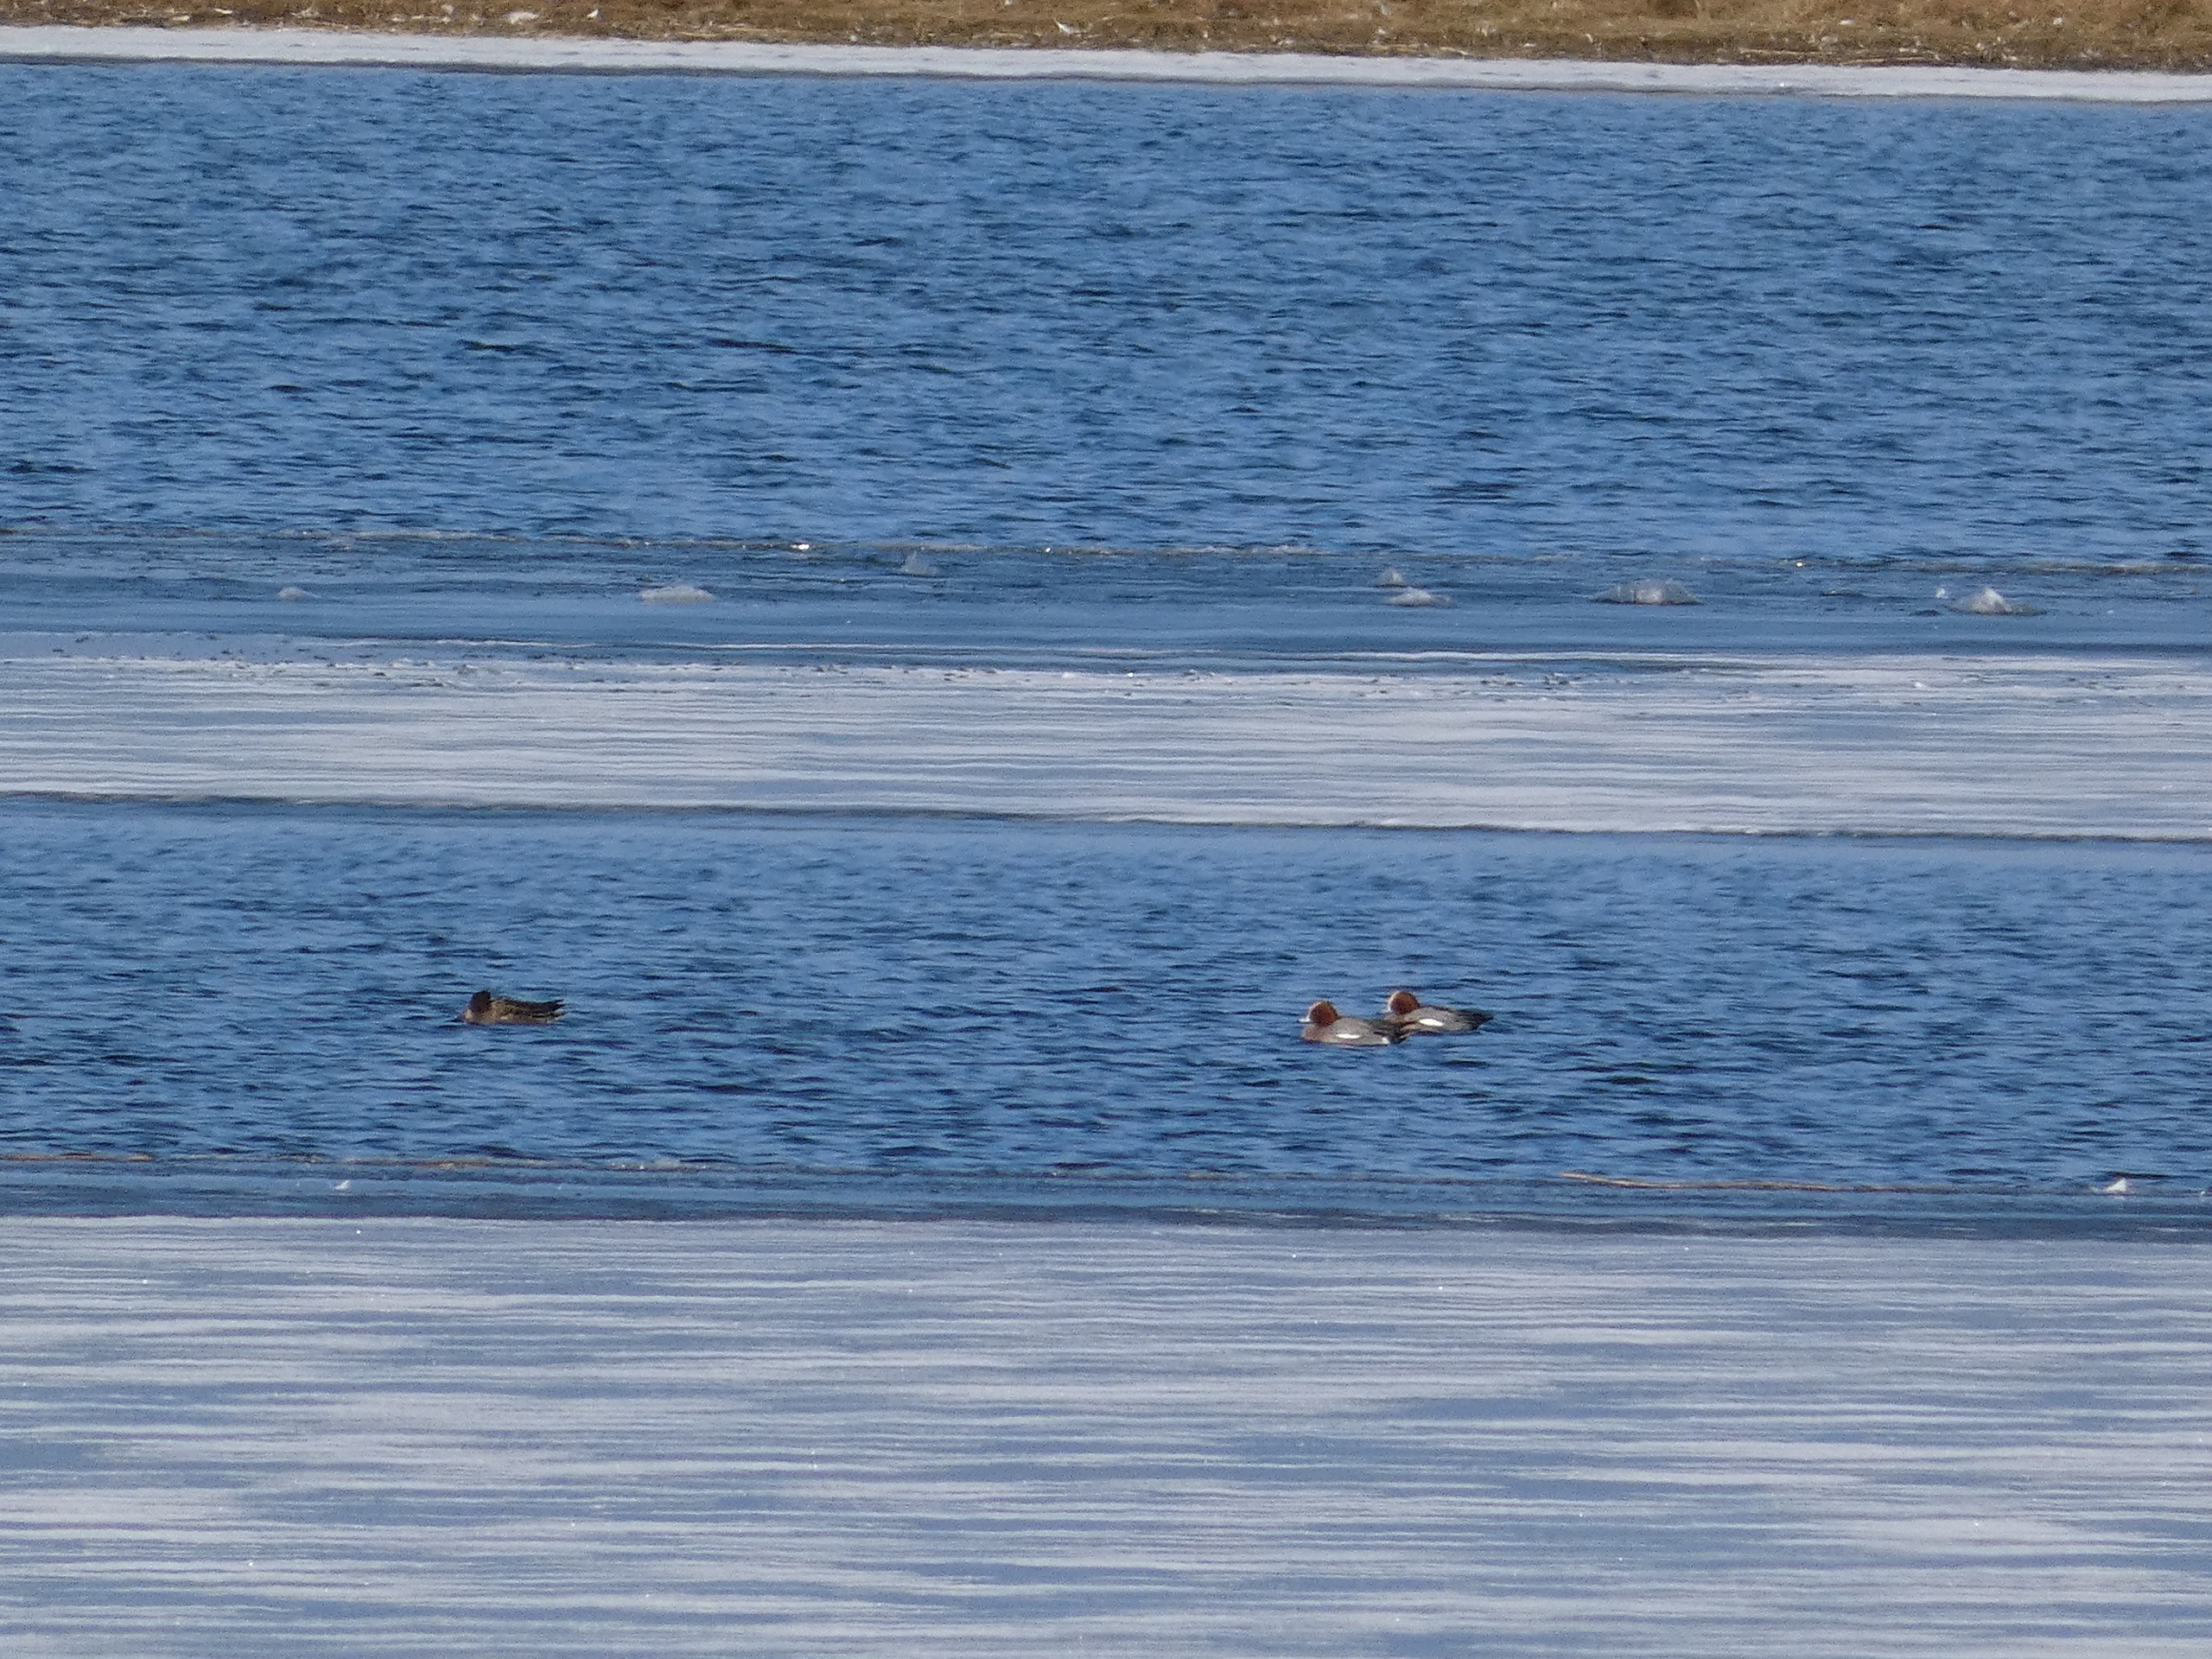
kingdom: Animalia
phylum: Chordata
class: Aves
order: Anseriformes
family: Anatidae
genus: Mareca
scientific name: Mareca penelope
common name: Pibeand
